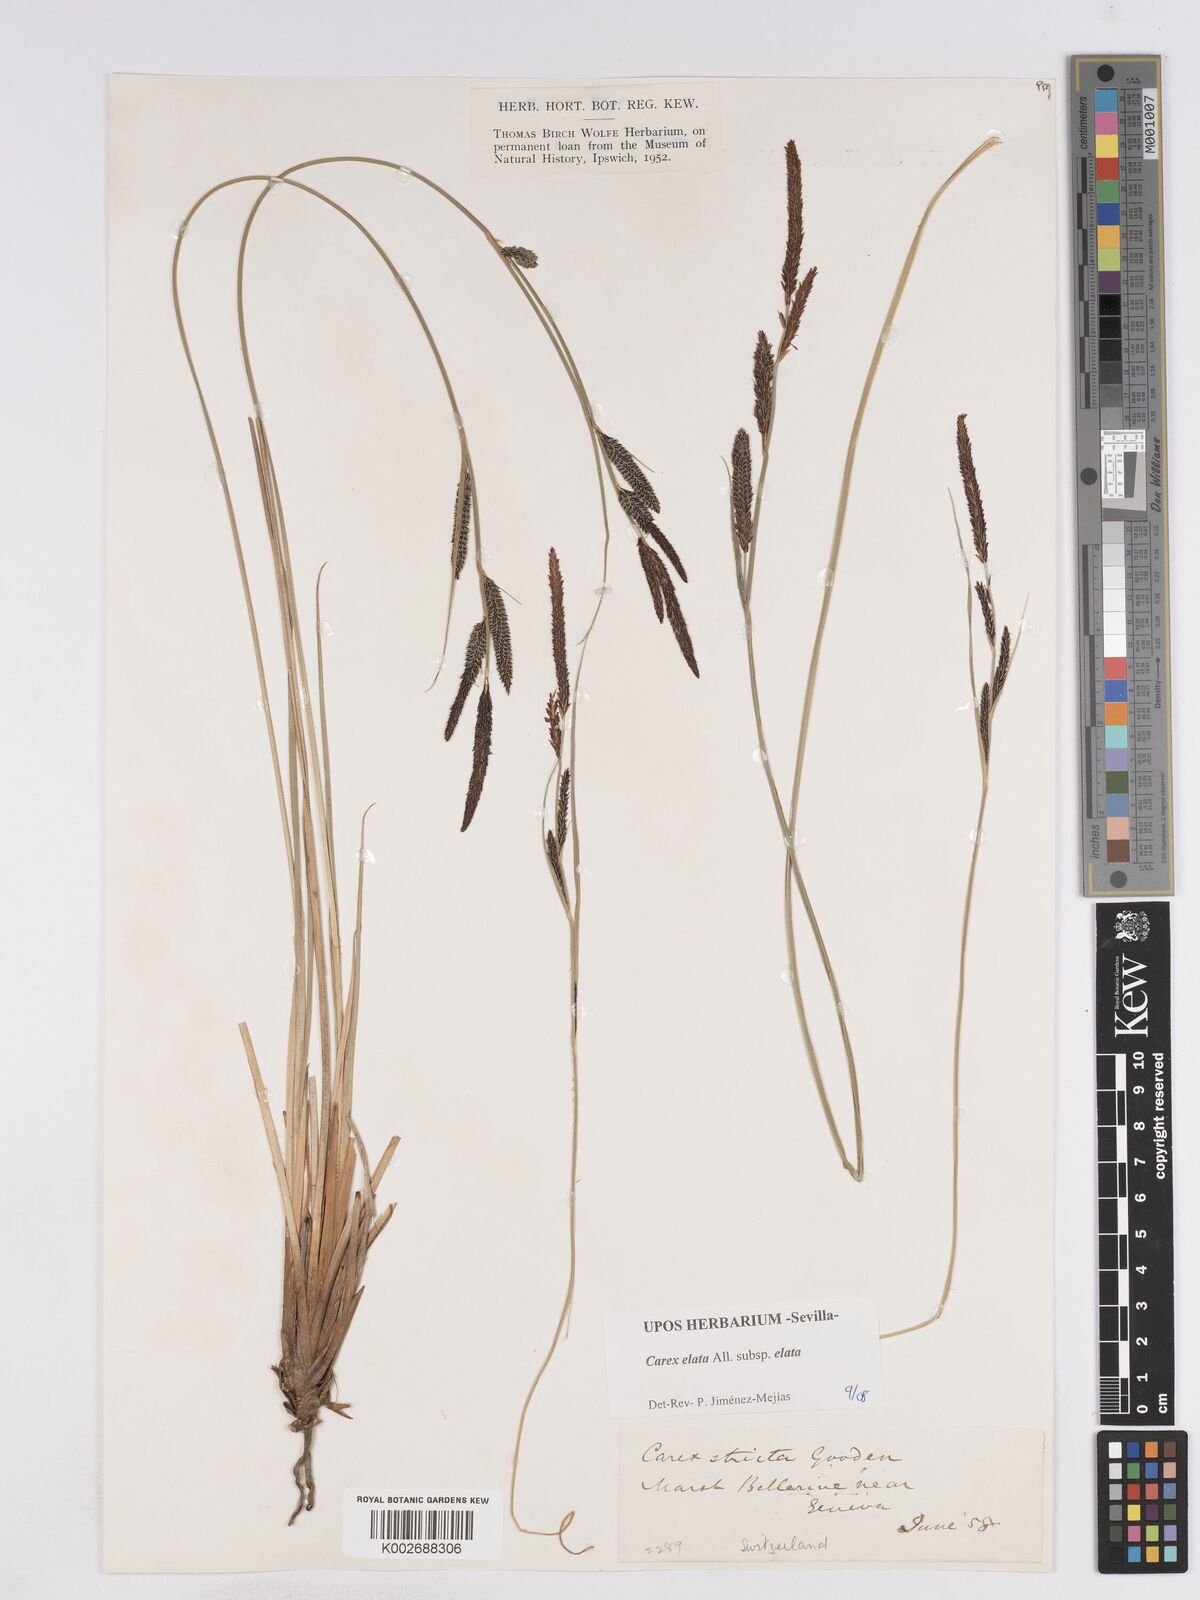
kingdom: Plantae
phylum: Tracheophyta
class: Liliopsida
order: Poales
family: Cyperaceae
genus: Carex
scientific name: Carex elata
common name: Tufted sedge
